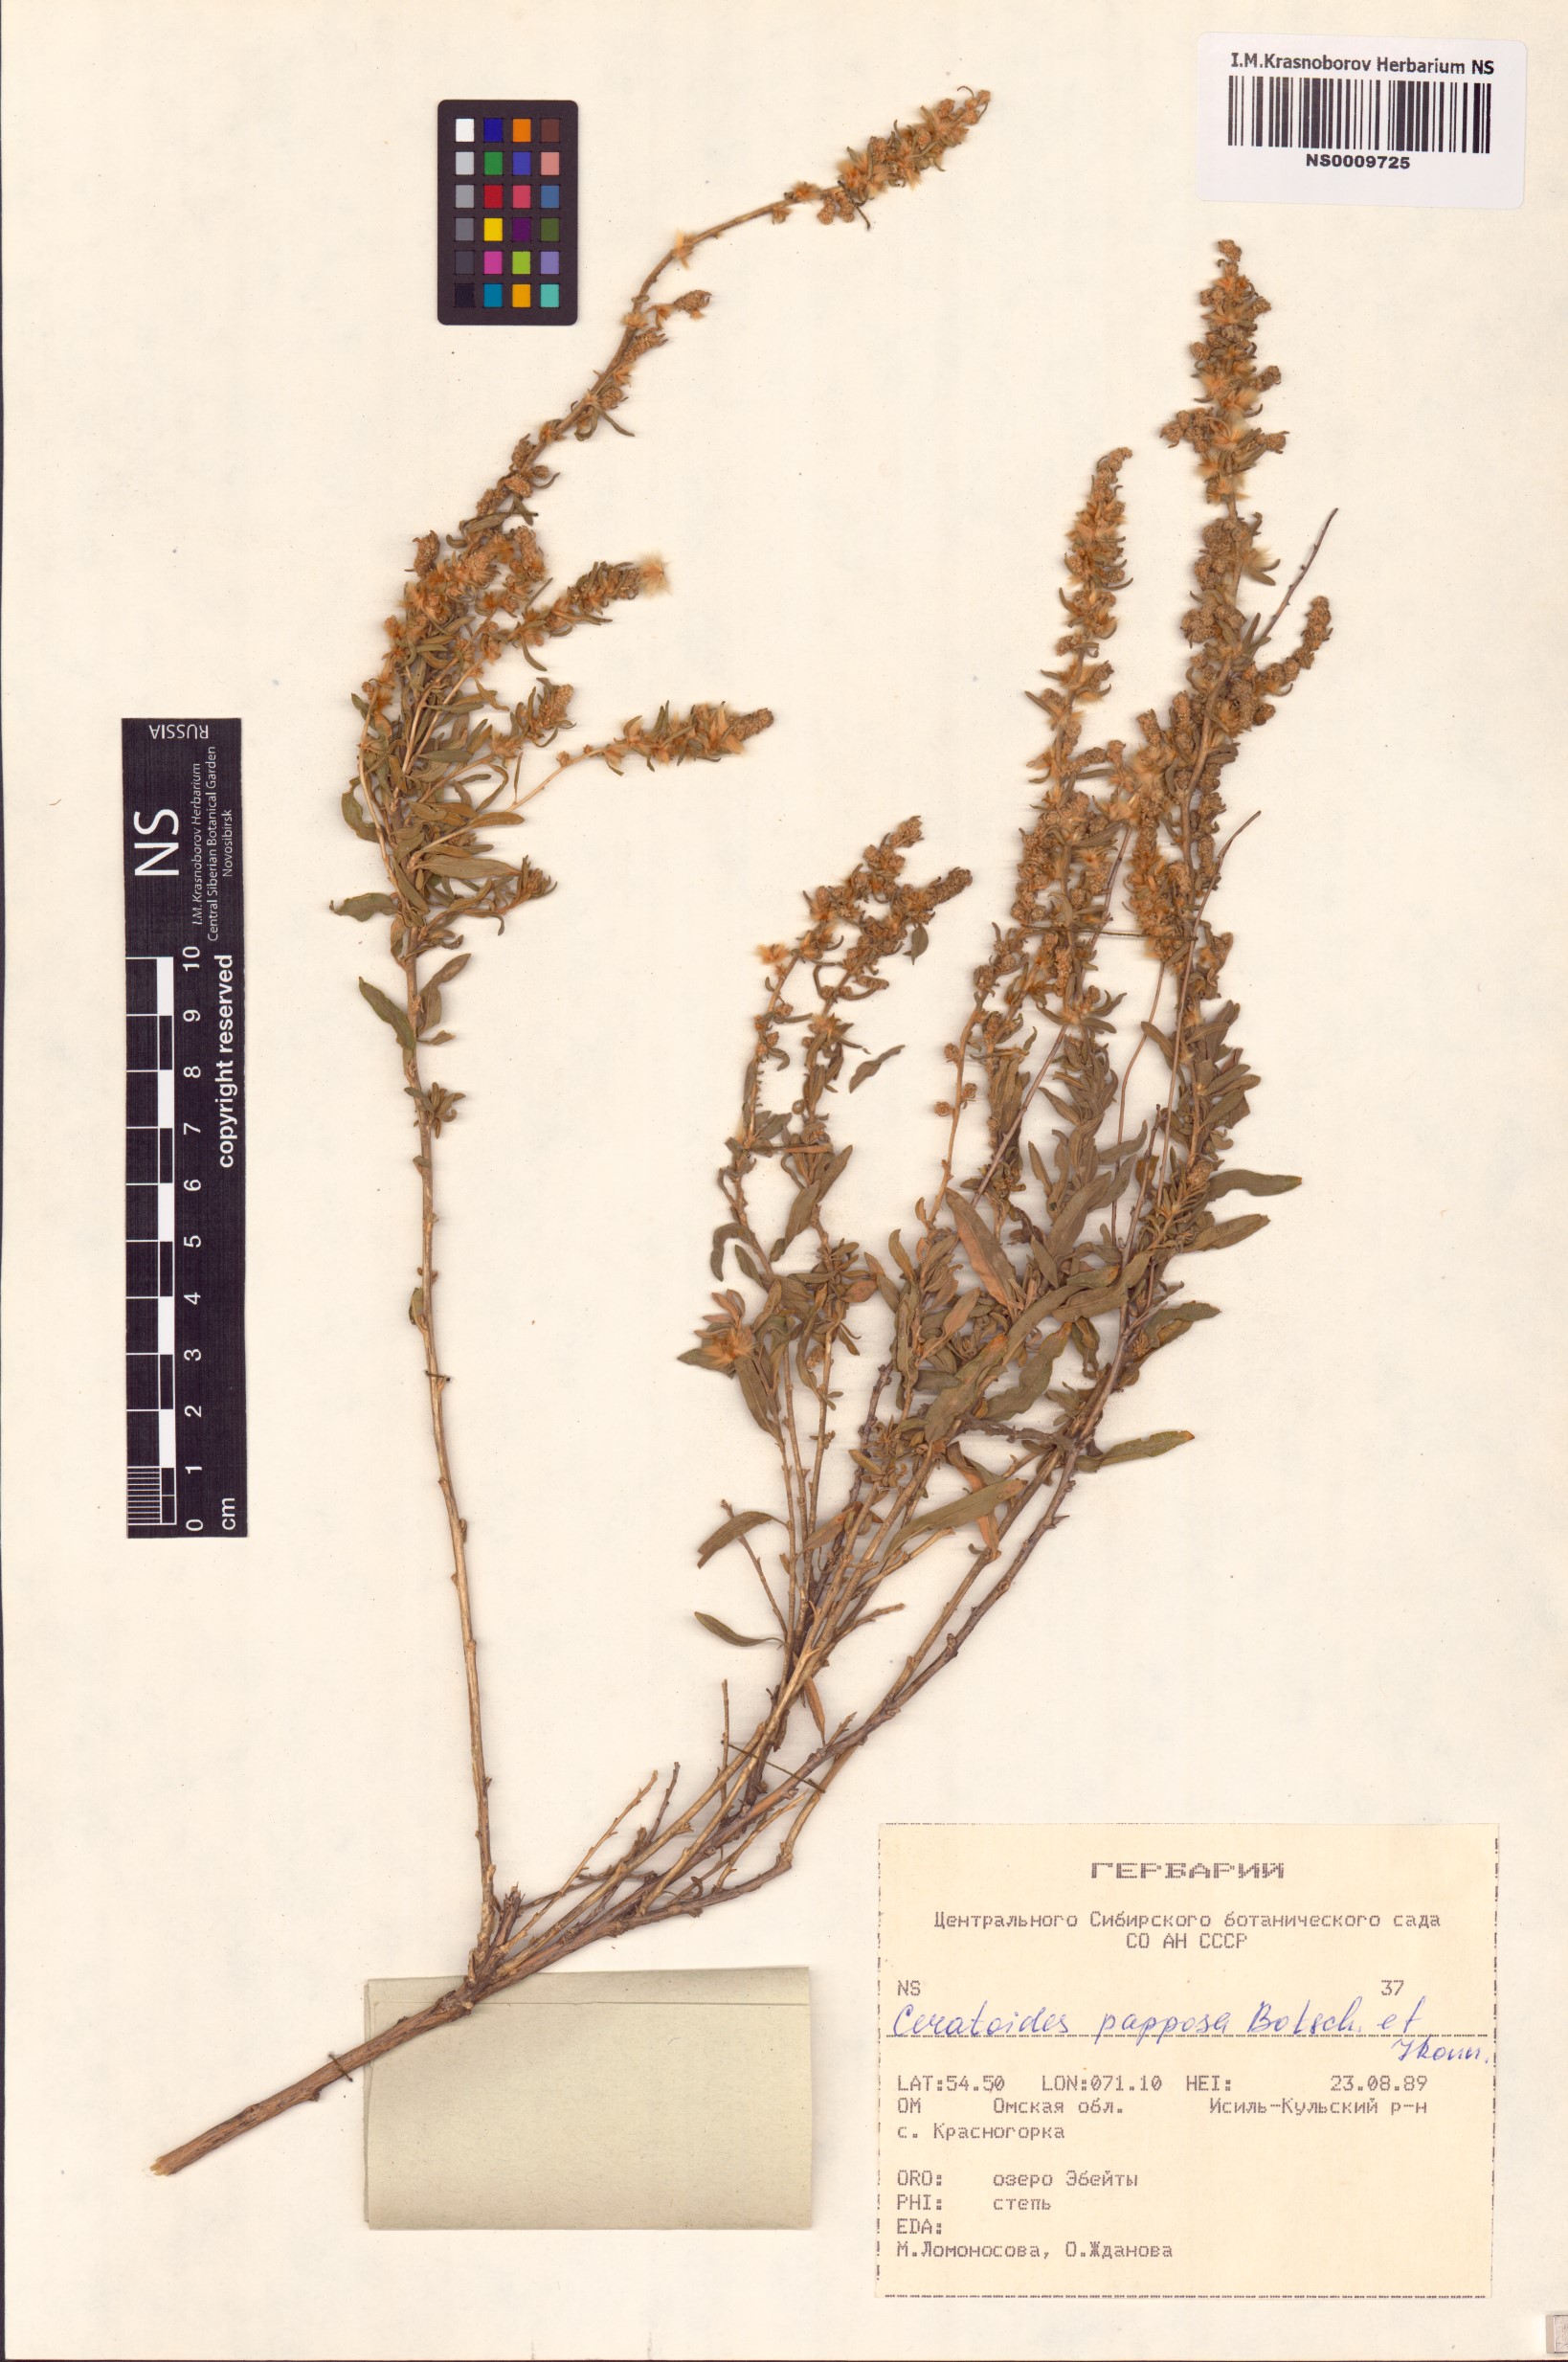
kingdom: Plantae
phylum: Tracheophyta
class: Magnoliopsida
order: Caryophyllales
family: Amaranthaceae
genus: Krascheninnikovia
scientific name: Krascheninnikovia ceratoides
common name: Pamirian winterfat
